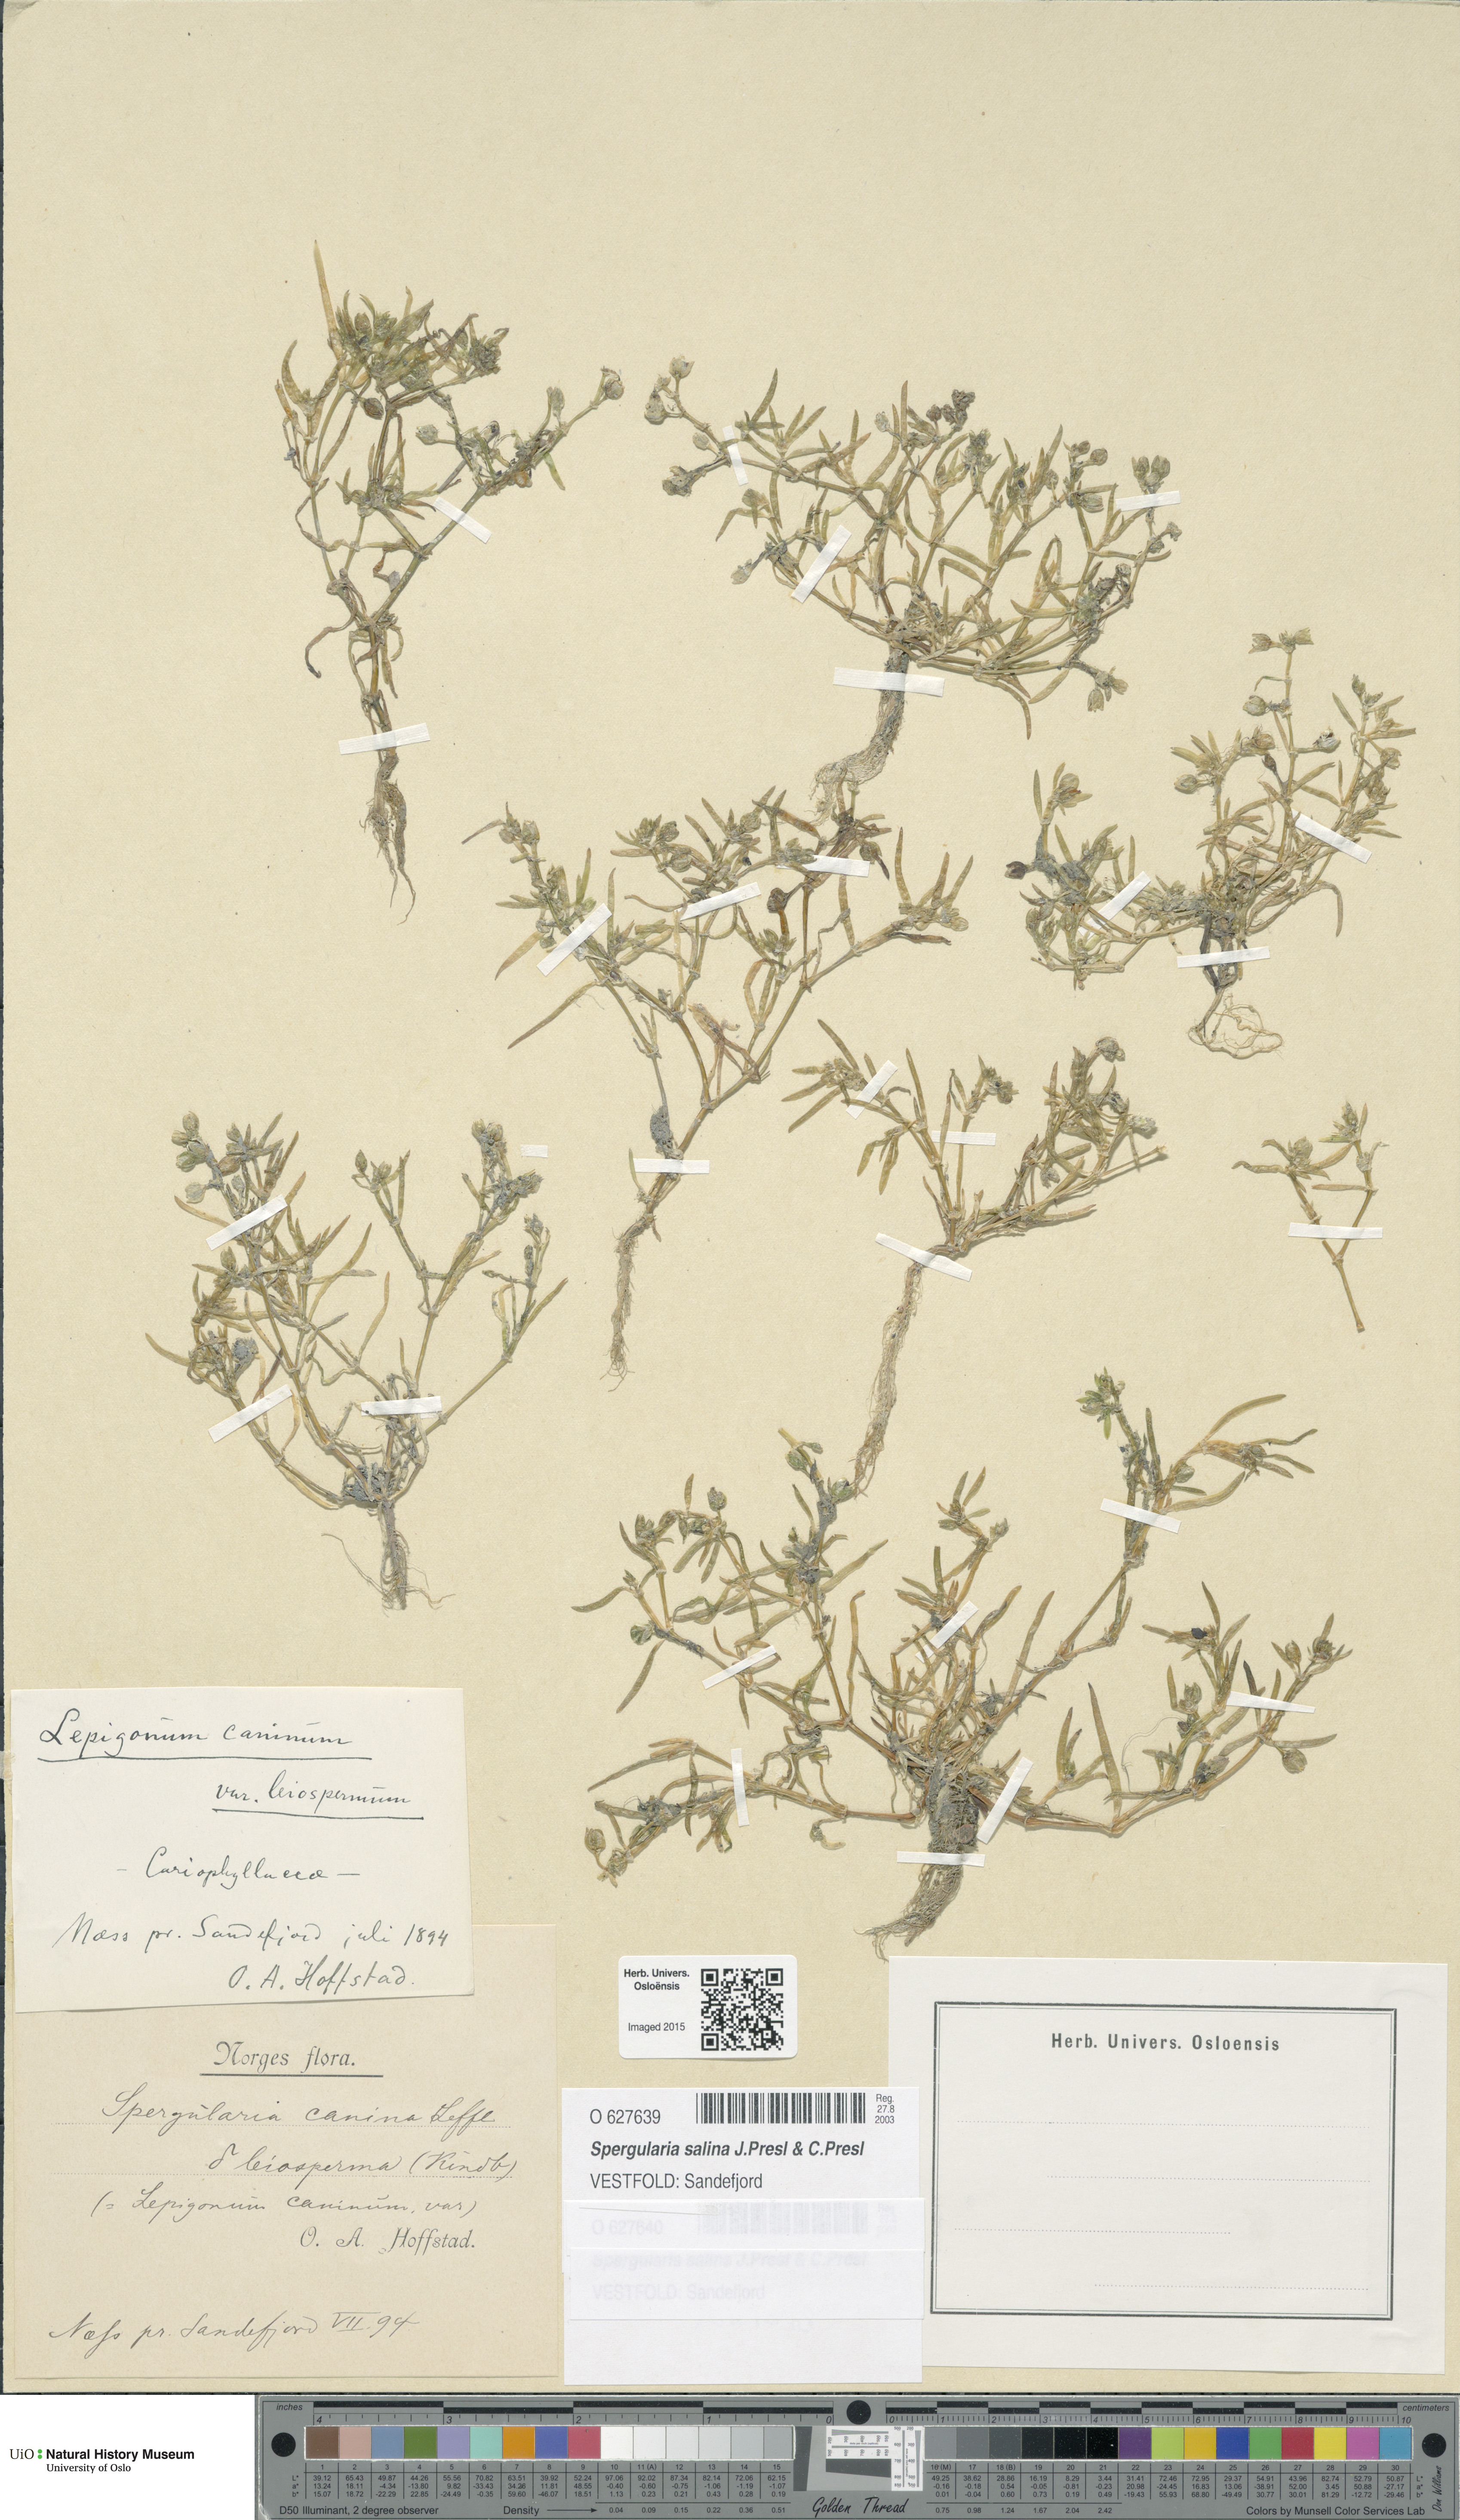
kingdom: Plantae
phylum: Tracheophyta
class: Magnoliopsida
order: Caryophyllales
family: Caryophyllaceae
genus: Spergularia
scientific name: Spergularia marina
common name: Lesser sea-spurrey
